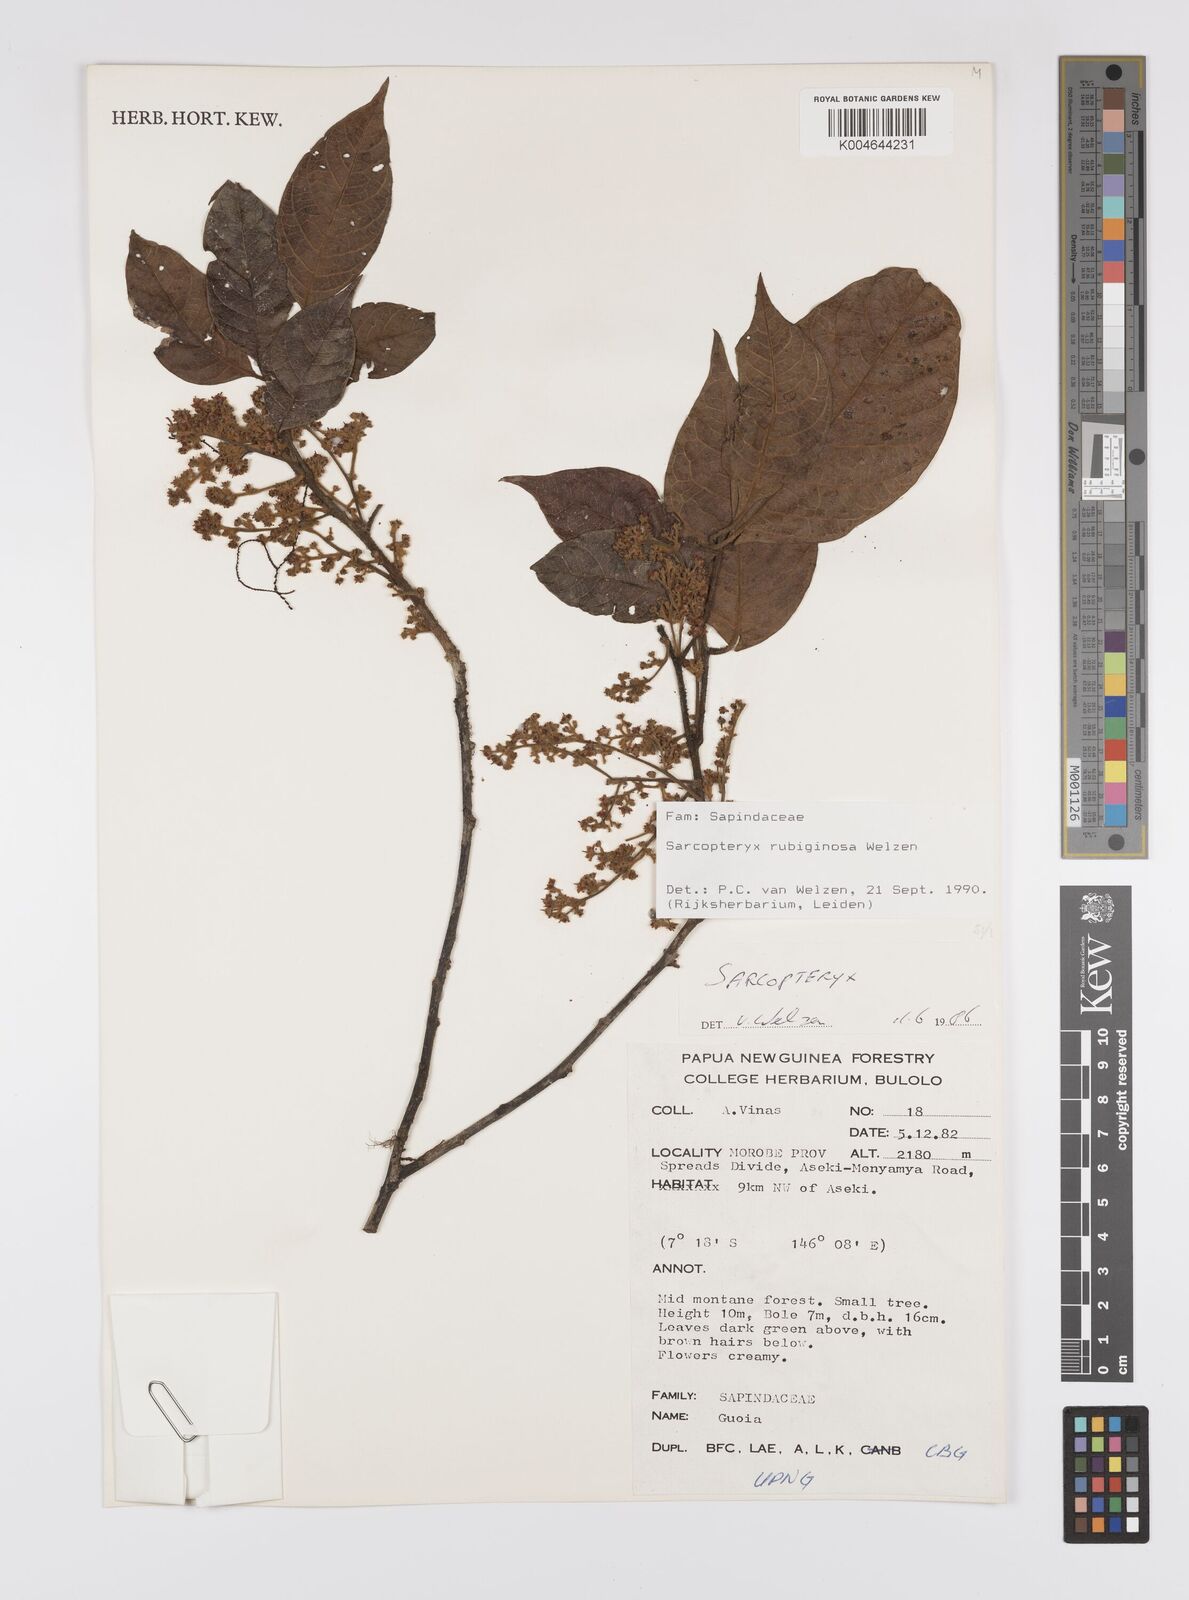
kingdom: Plantae
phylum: Tracheophyta
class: Magnoliopsida
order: Sapindales
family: Sapindaceae
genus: Sarcopteryx
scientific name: Sarcopteryx rubiginosa
